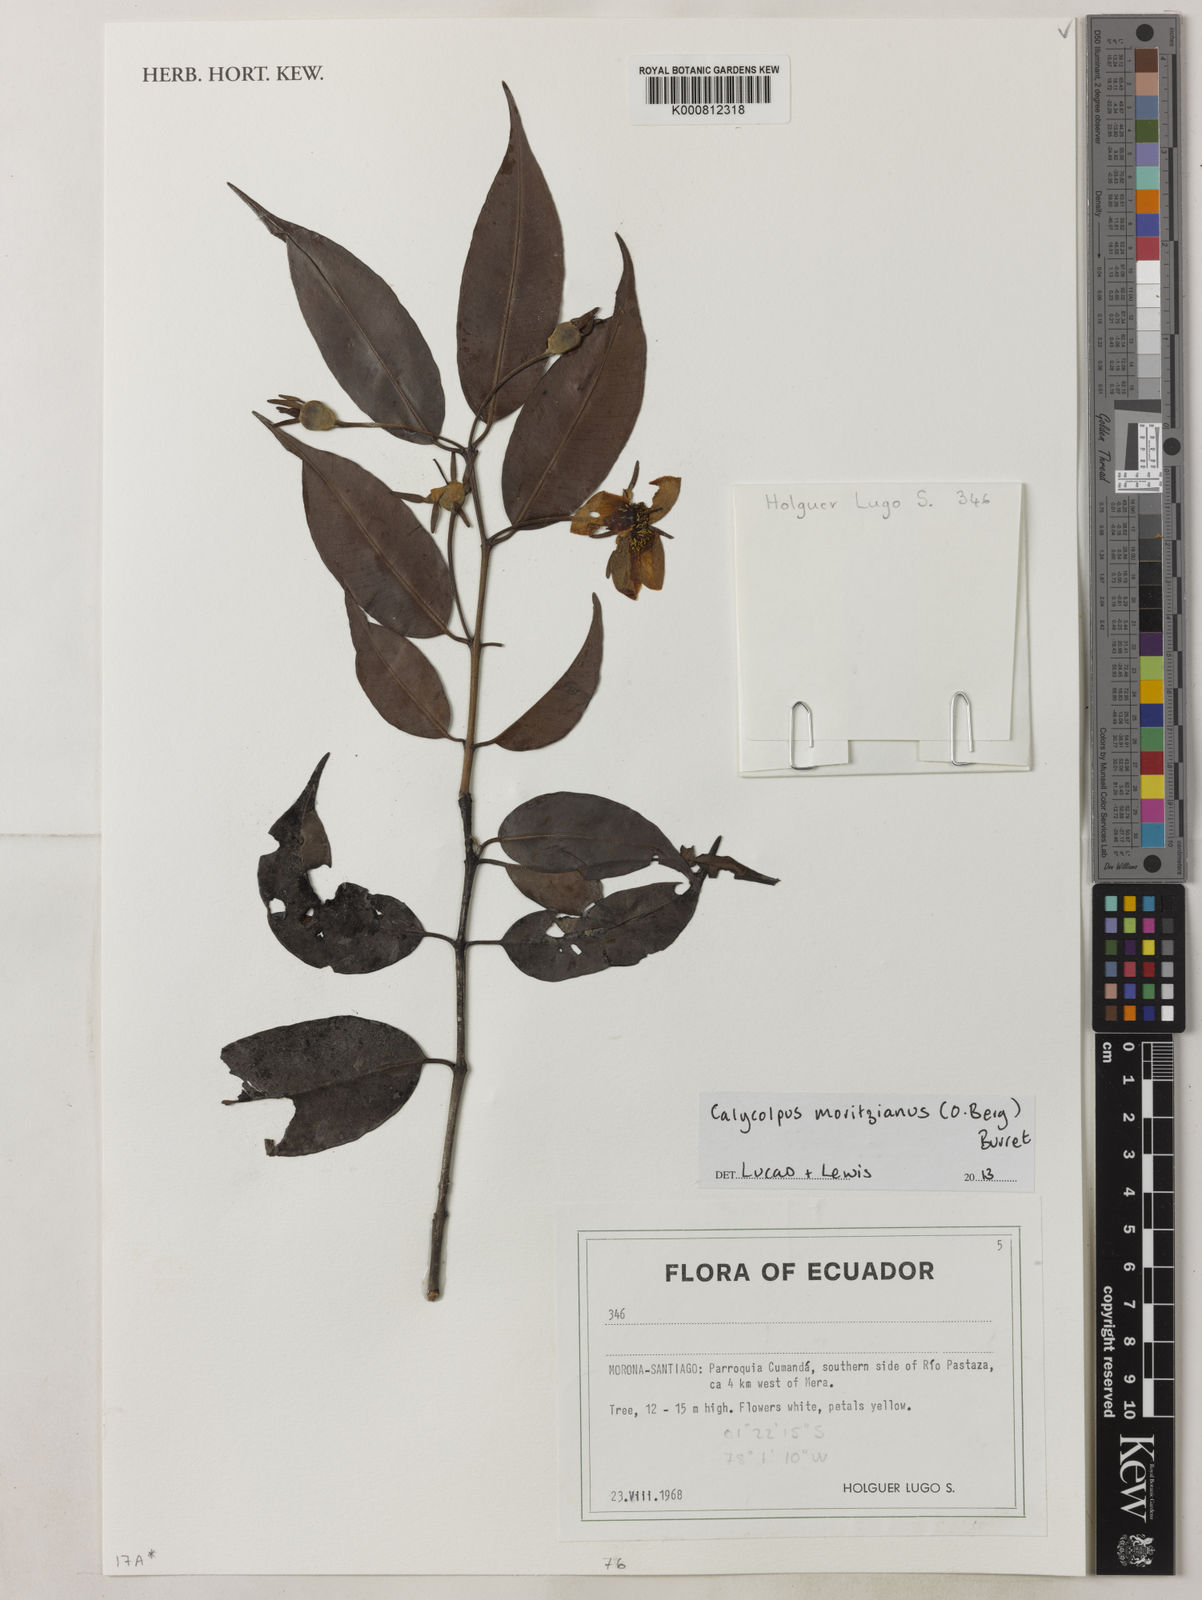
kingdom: Plantae
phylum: Tracheophyta
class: Magnoliopsida
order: Myrtales
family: Myrtaceae
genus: Calycolpus
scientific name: Calycolpus moritzianus
